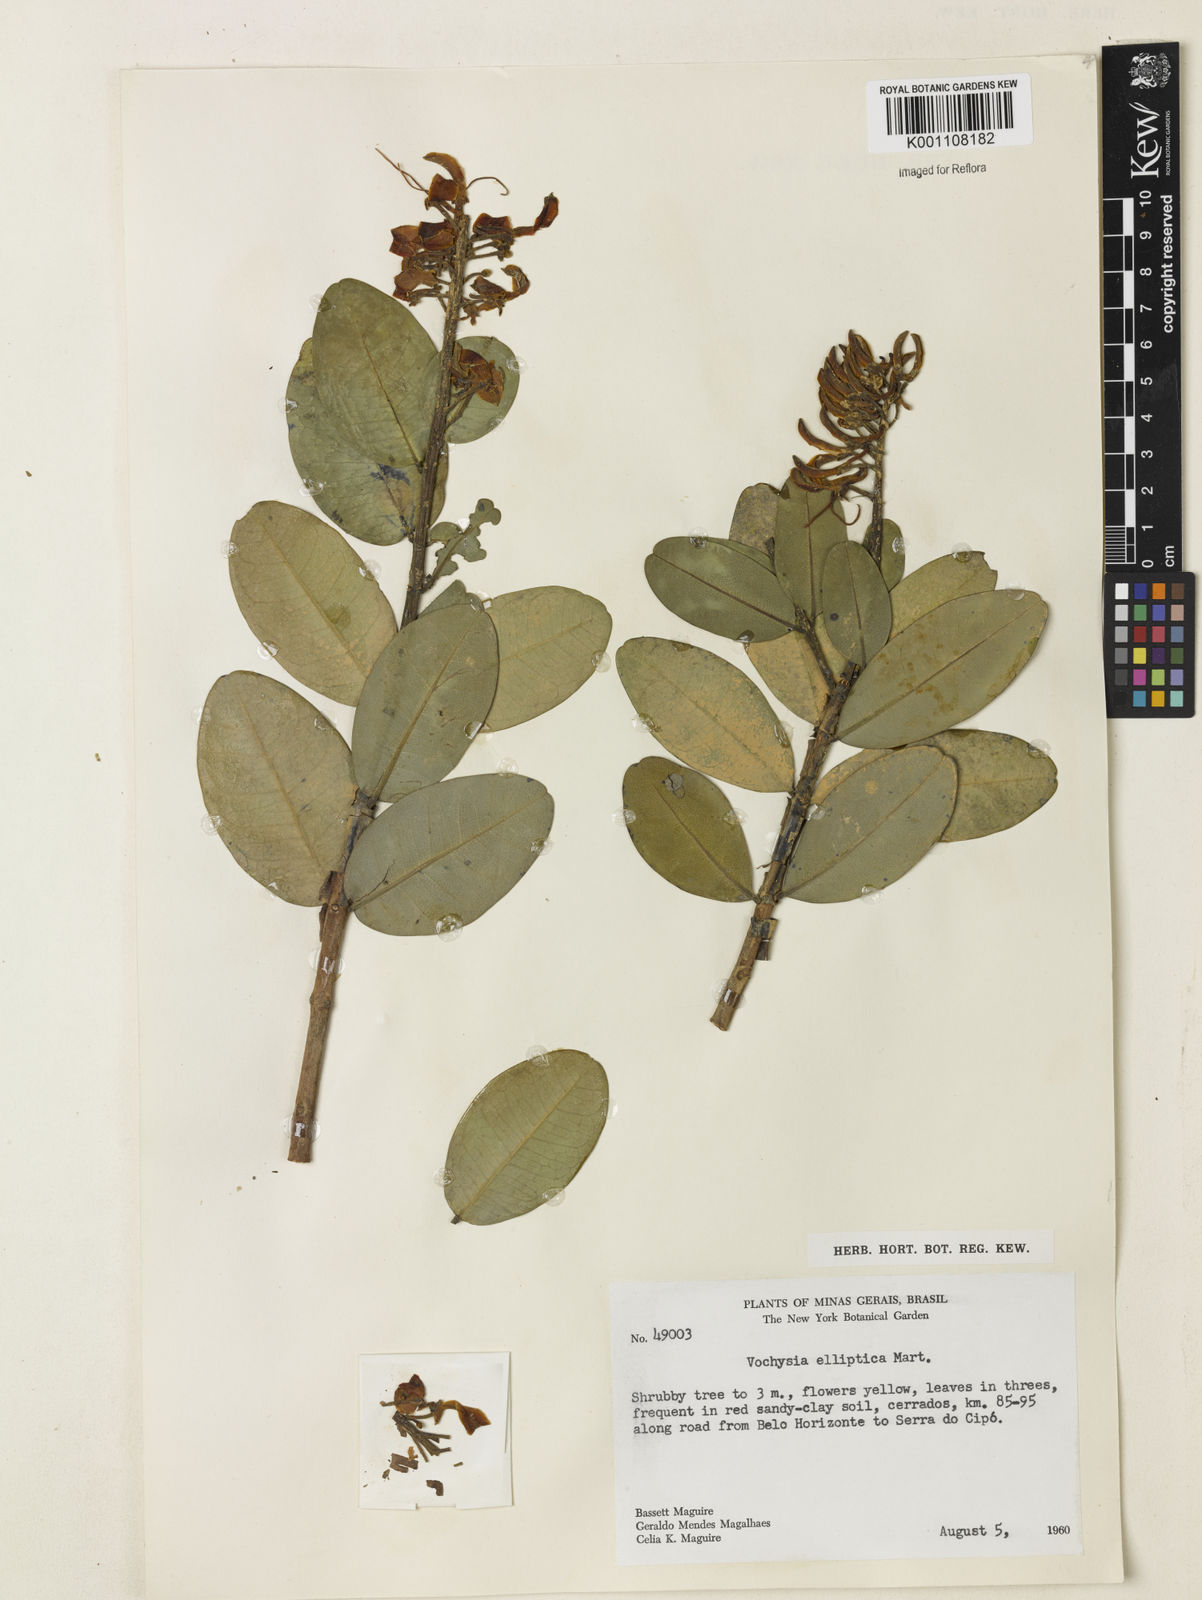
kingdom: Plantae
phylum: Tracheophyta
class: Magnoliopsida
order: Myrtales
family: Vochysiaceae
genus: Vochysia
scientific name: Vochysia elliptica
